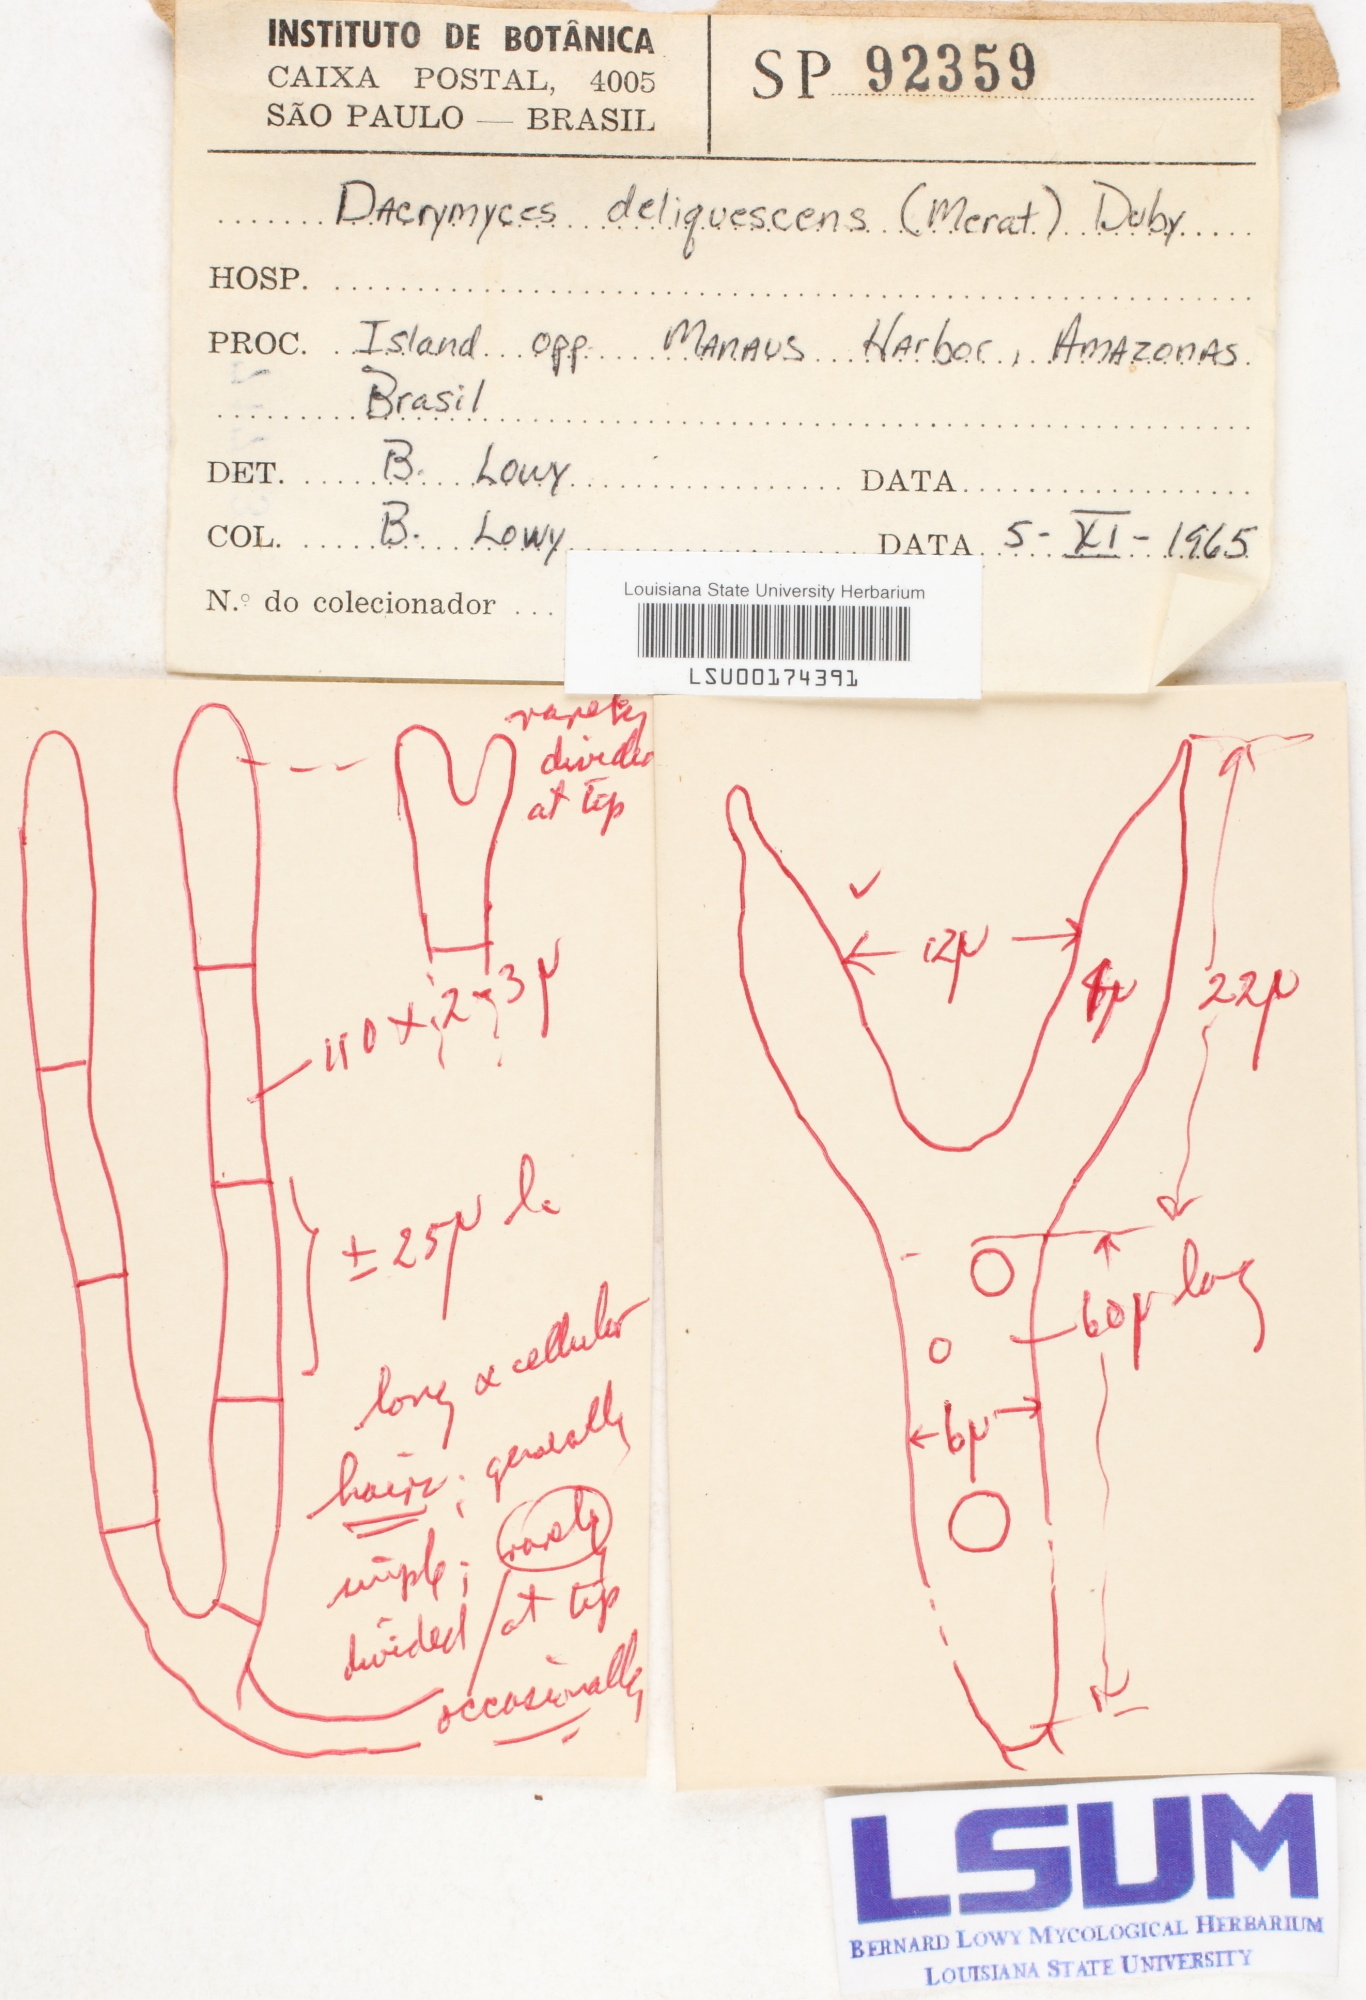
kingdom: Fungi
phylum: Basidiomycota
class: Dacrymycetes
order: Dacrymycetales
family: Dacrymycetaceae
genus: Dacrymyces
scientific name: Dacrymyces stillatus
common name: Common jelly spot
